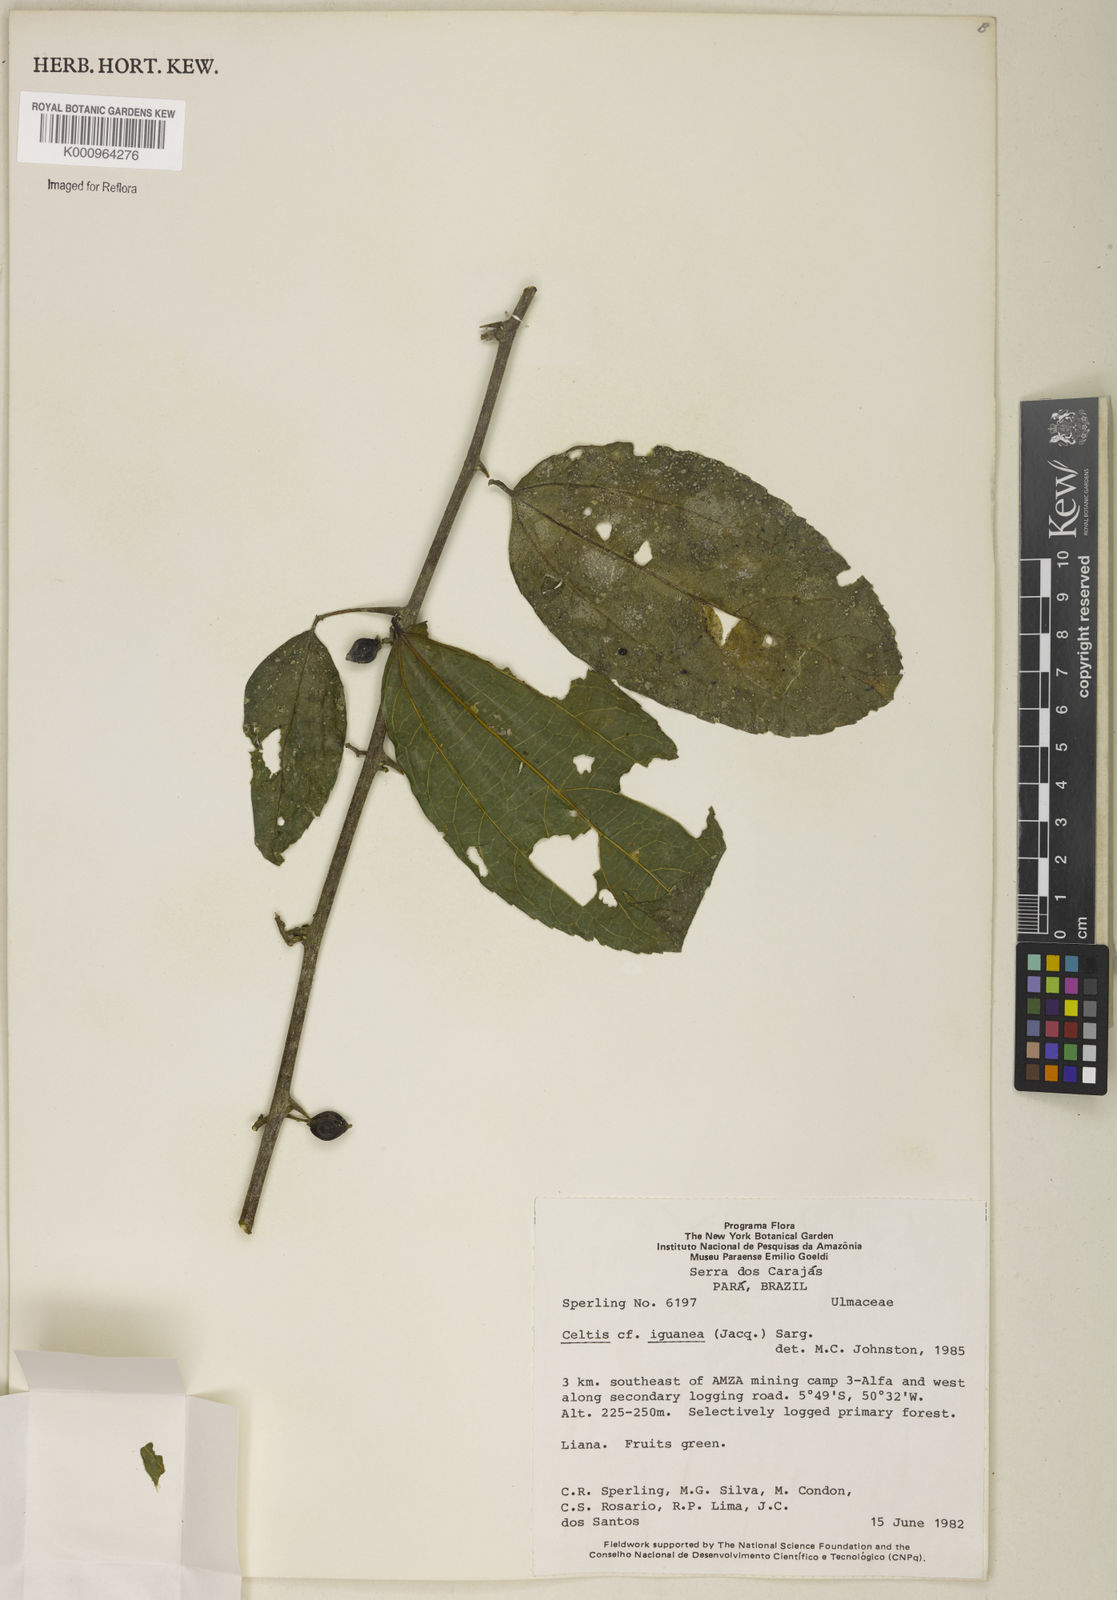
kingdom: Plantae
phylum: Tracheophyta
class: Magnoliopsida
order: Rosales
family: Cannabaceae
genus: Celtis
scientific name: Celtis iguanaea
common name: Iguana hackberry
